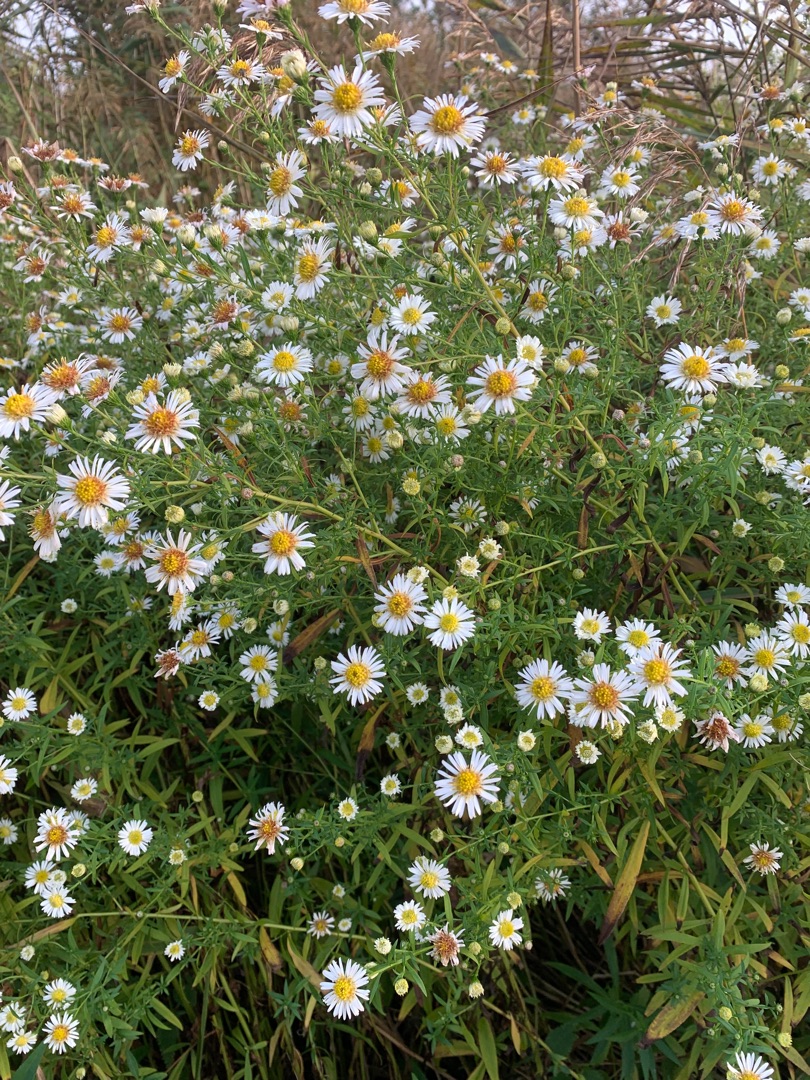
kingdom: Plantae
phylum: Tracheophyta
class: Magnoliopsida
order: Asterales
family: Asteraceae
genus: Symphyotrichum
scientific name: Symphyotrichum
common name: Asters (Symphyotrichum-slægten)
